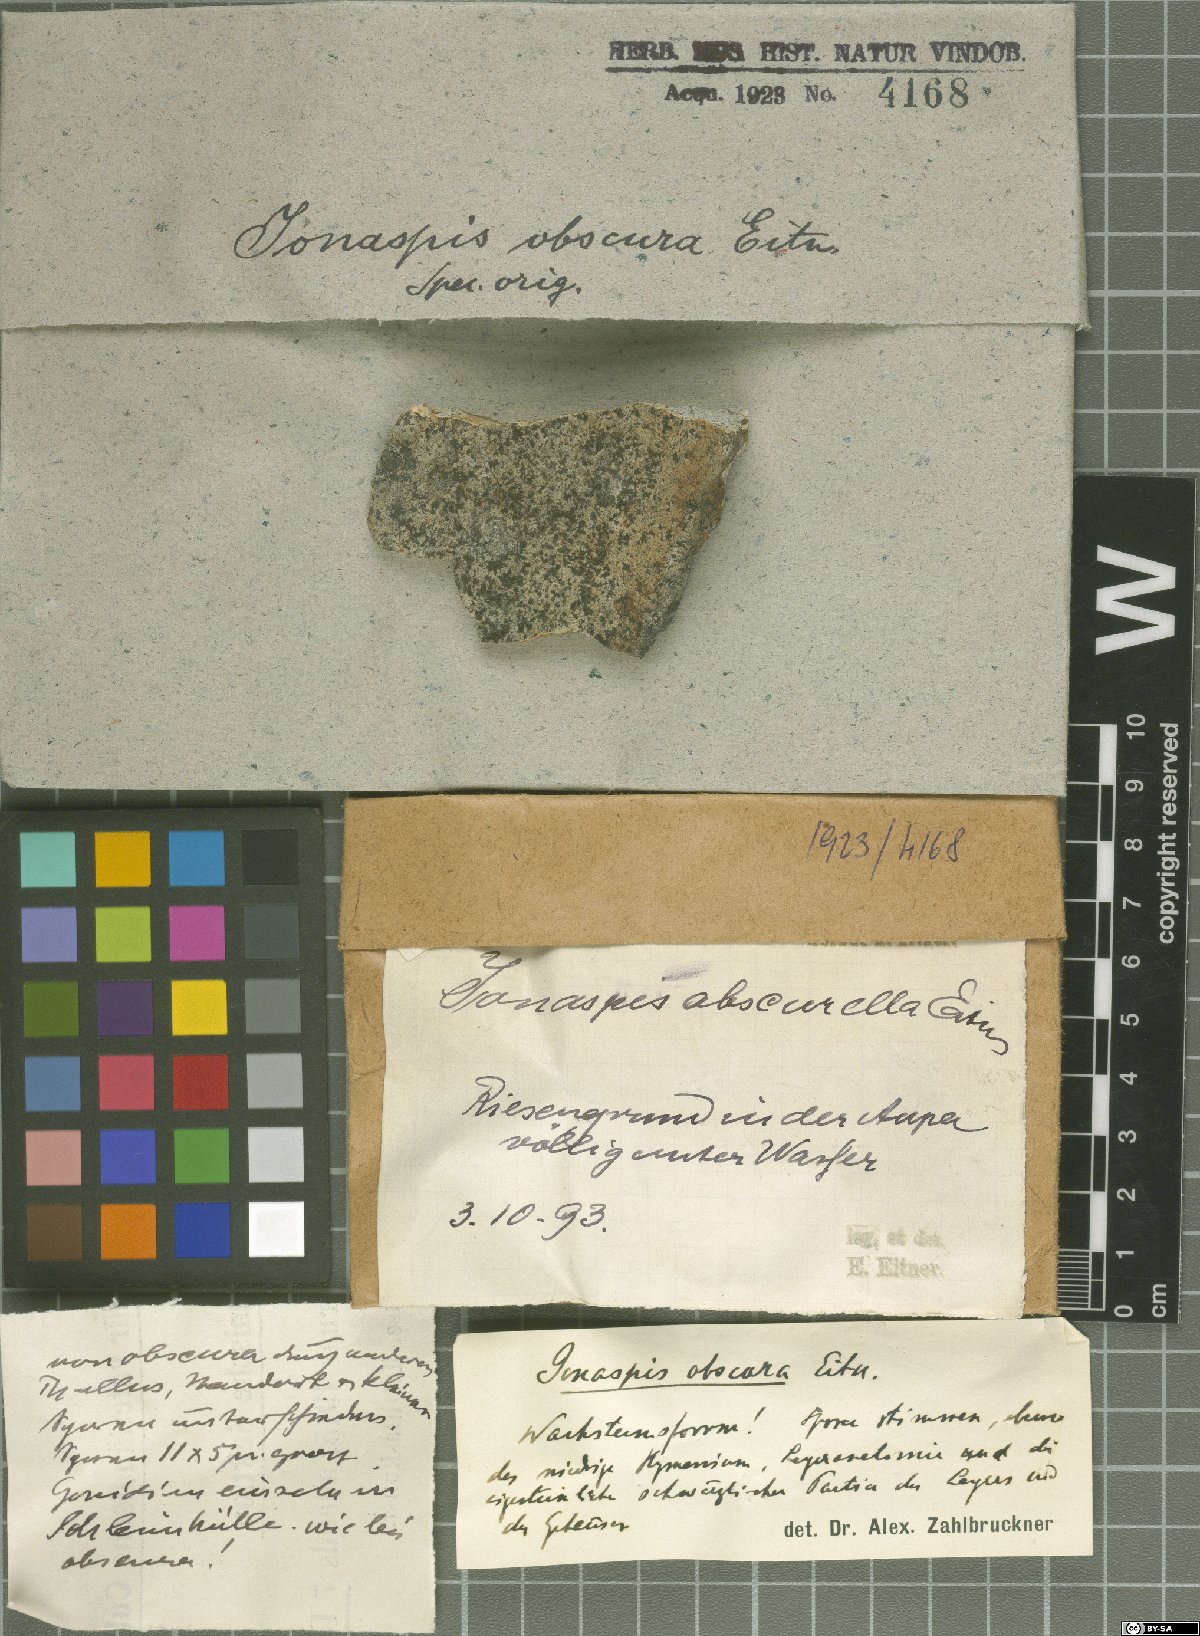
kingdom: Fungi
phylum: Ascomycota
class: Lecanoromycetes
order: Hymeneliales
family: Hymeneliaceae
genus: Ionaspis
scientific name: Ionaspis obscura
